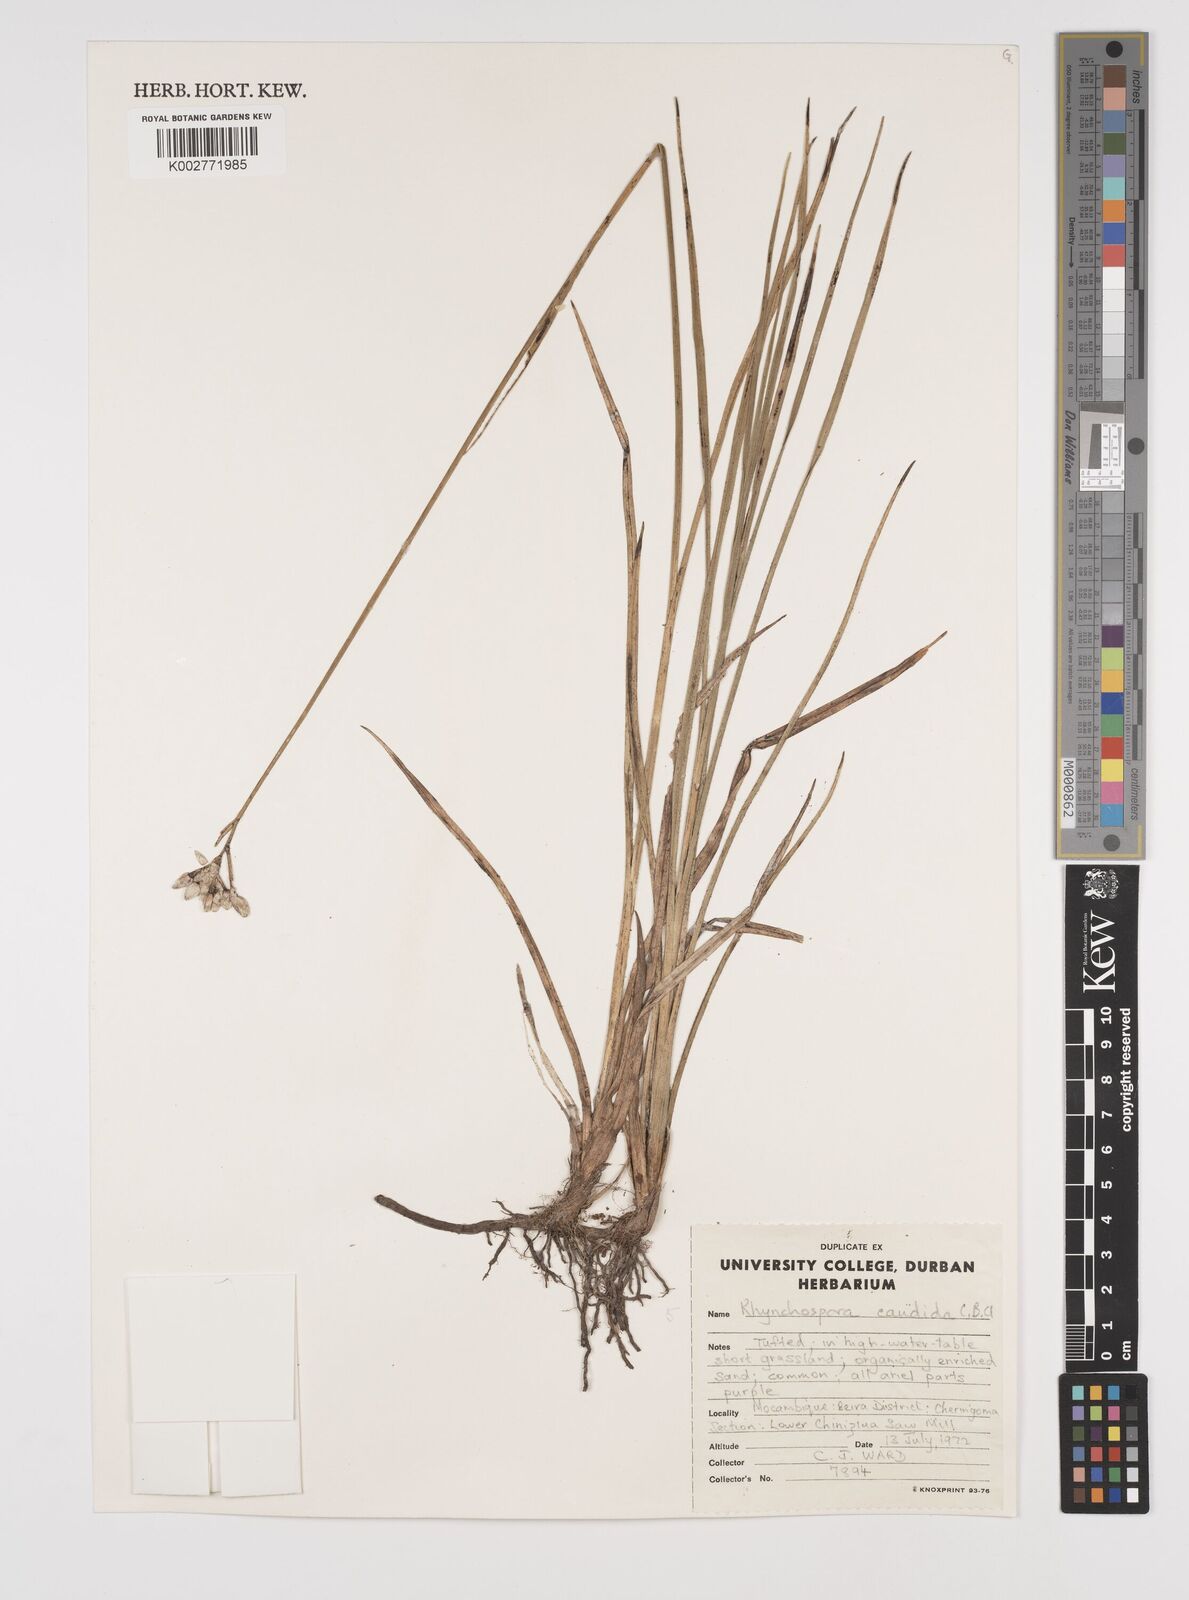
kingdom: Plantae
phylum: Tracheophyta
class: Liliopsida
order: Poales
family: Cyperaceae
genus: Rhynchospora
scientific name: Rhynchospora candida
